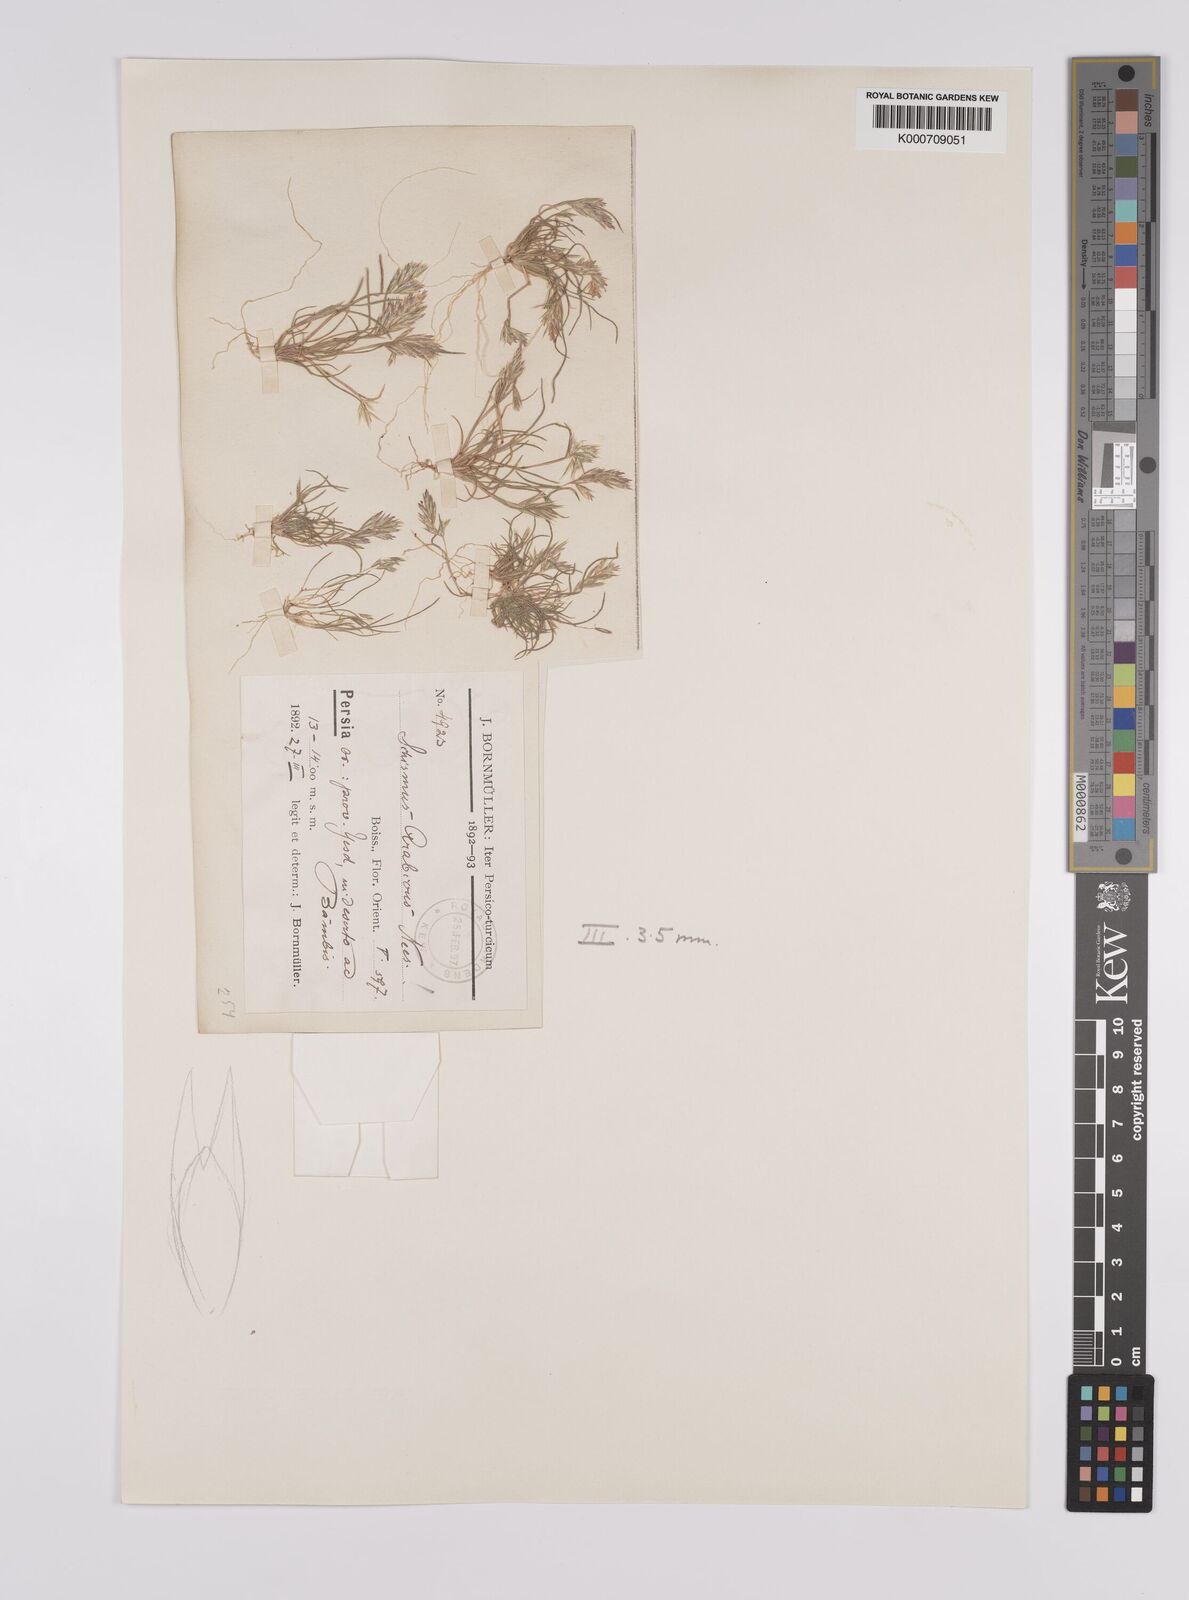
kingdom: Plantae
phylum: Tracheophyta
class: Liliopsida
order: Poales
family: Poaceae
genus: Schismus
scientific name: Schismus arabicus
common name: Arabian schismus
